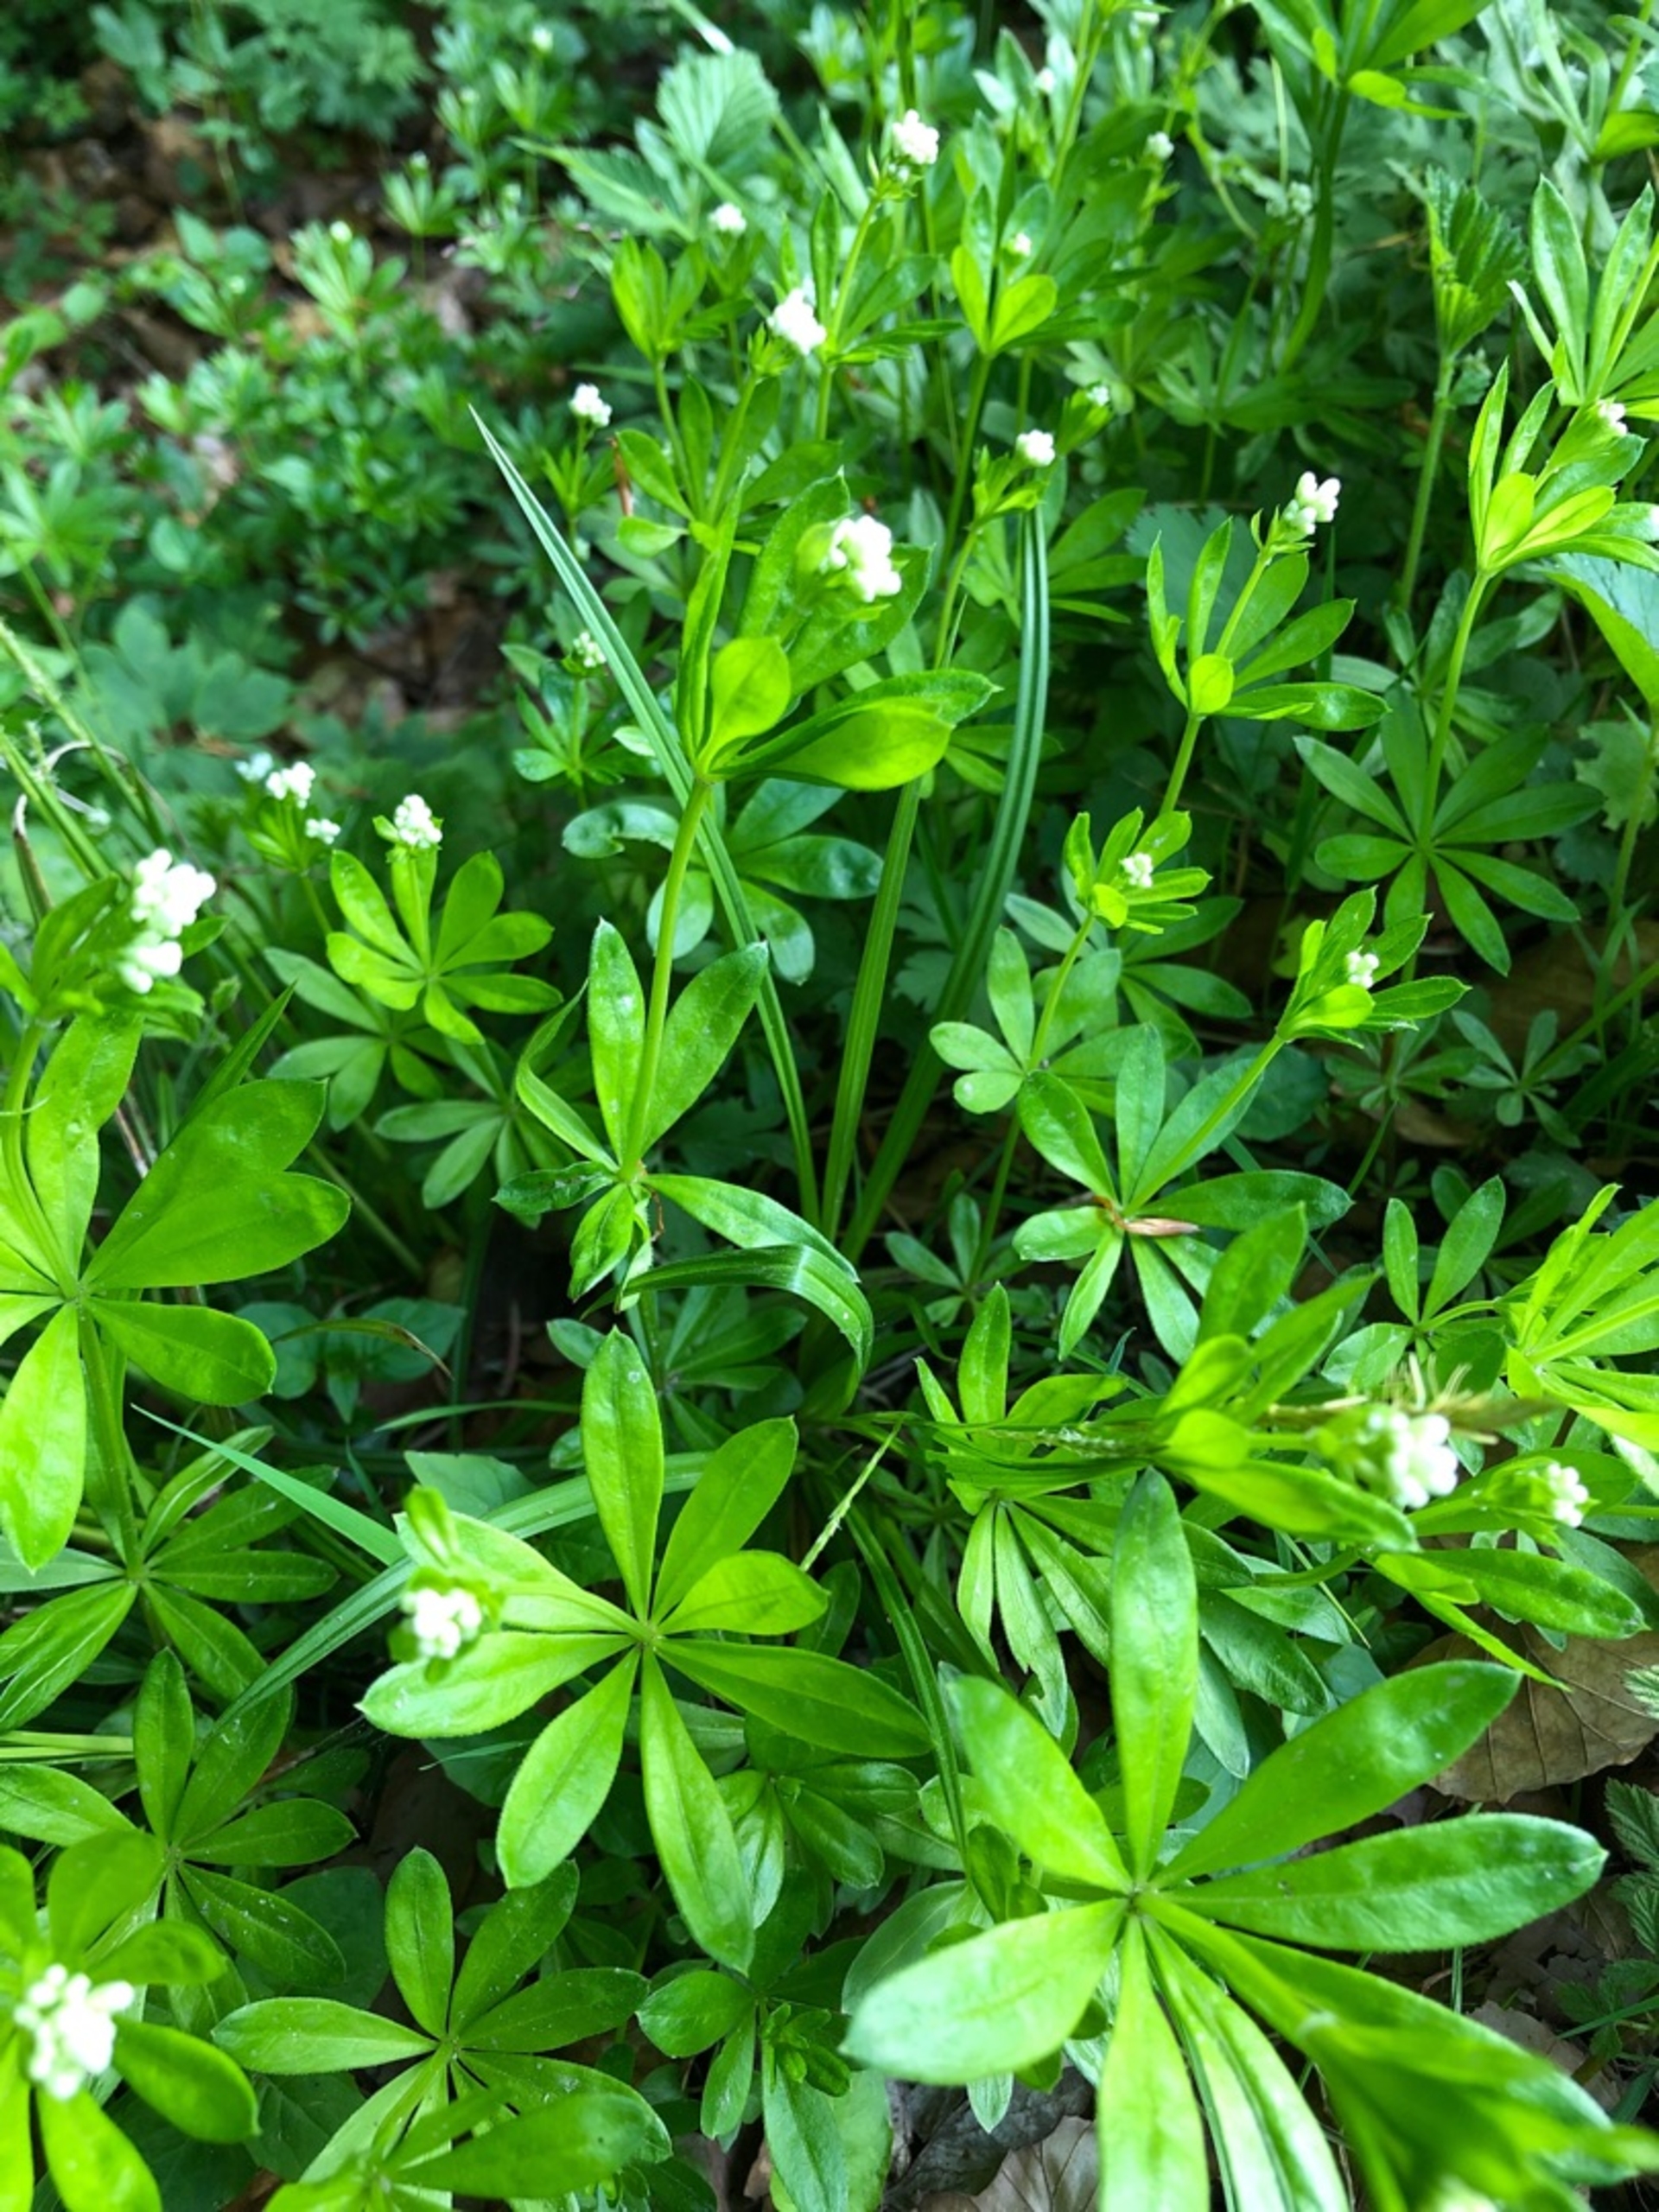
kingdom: Plantae
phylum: Tracheophyta
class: Magnoliopsida
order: Gentianales
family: Rubiaceae
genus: Galium
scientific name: Galium odoratum
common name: Skovmærke
